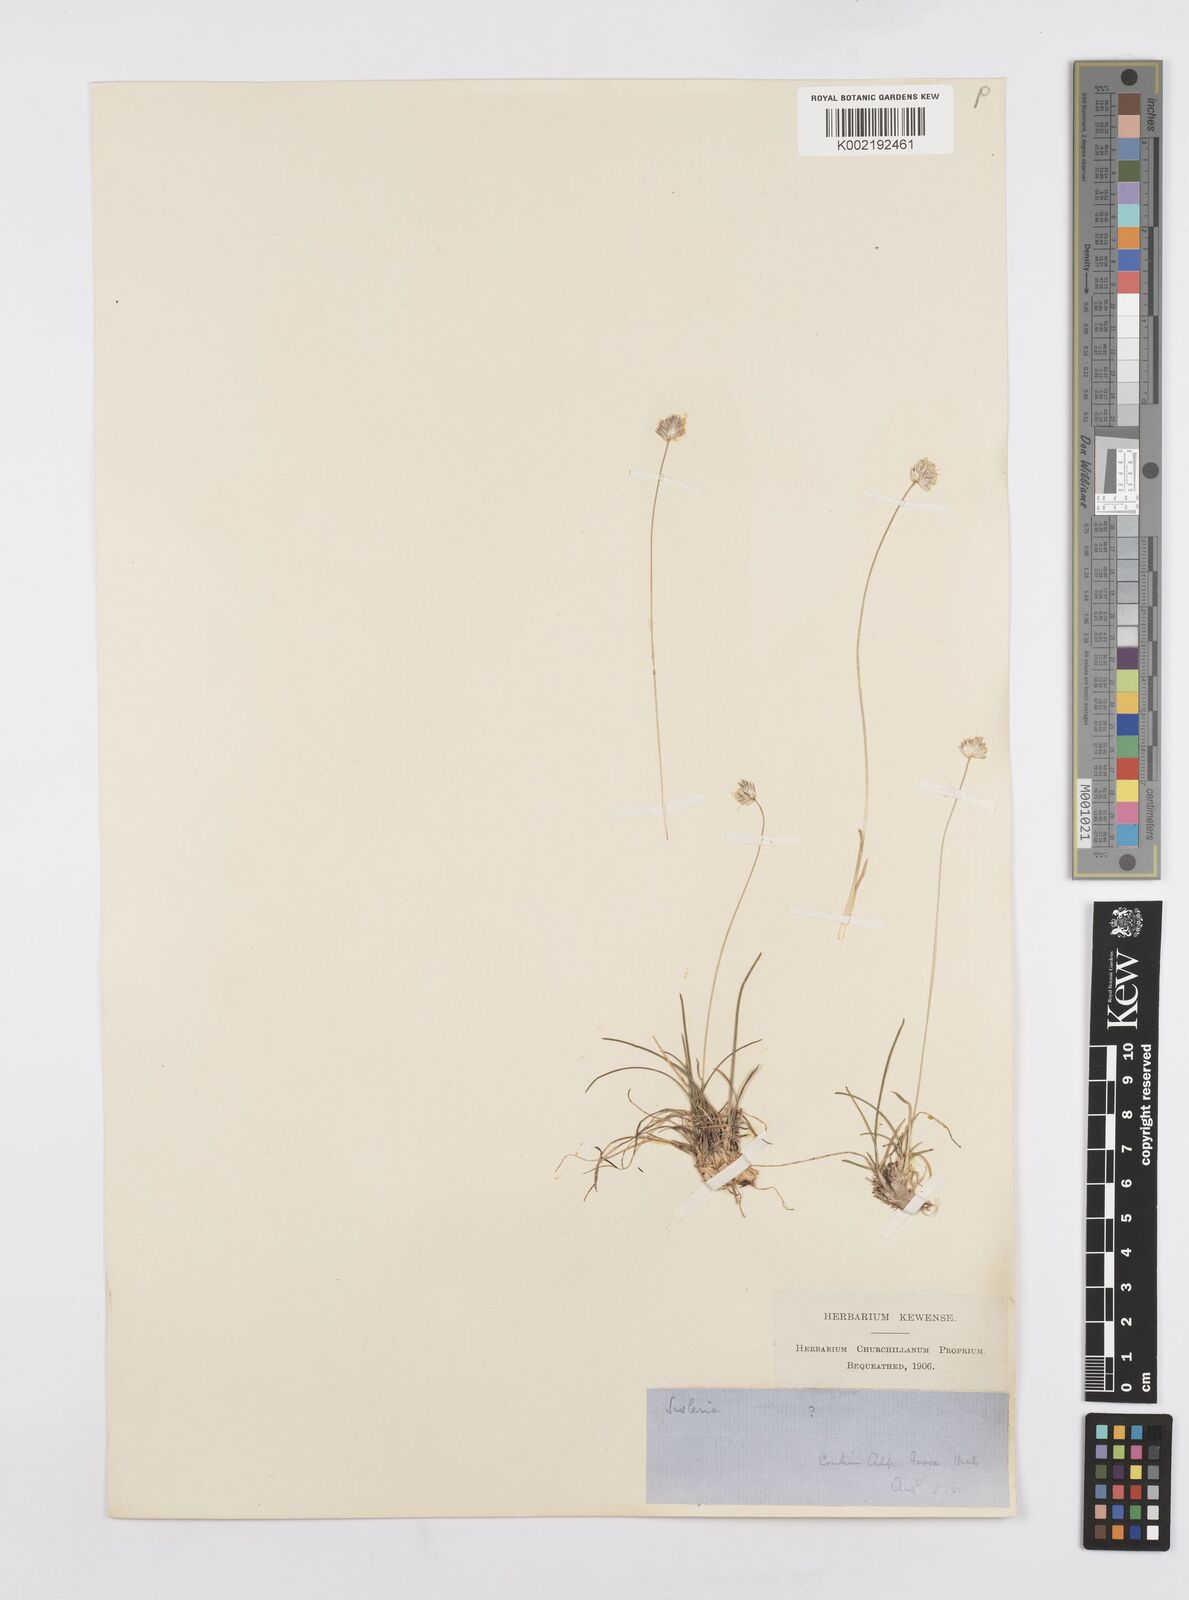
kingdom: Plantae
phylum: Tracheophyta
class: Liliopsida
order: Poales
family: Poaceae
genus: Sesleriella
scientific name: Sesleriella sphaerocephala
